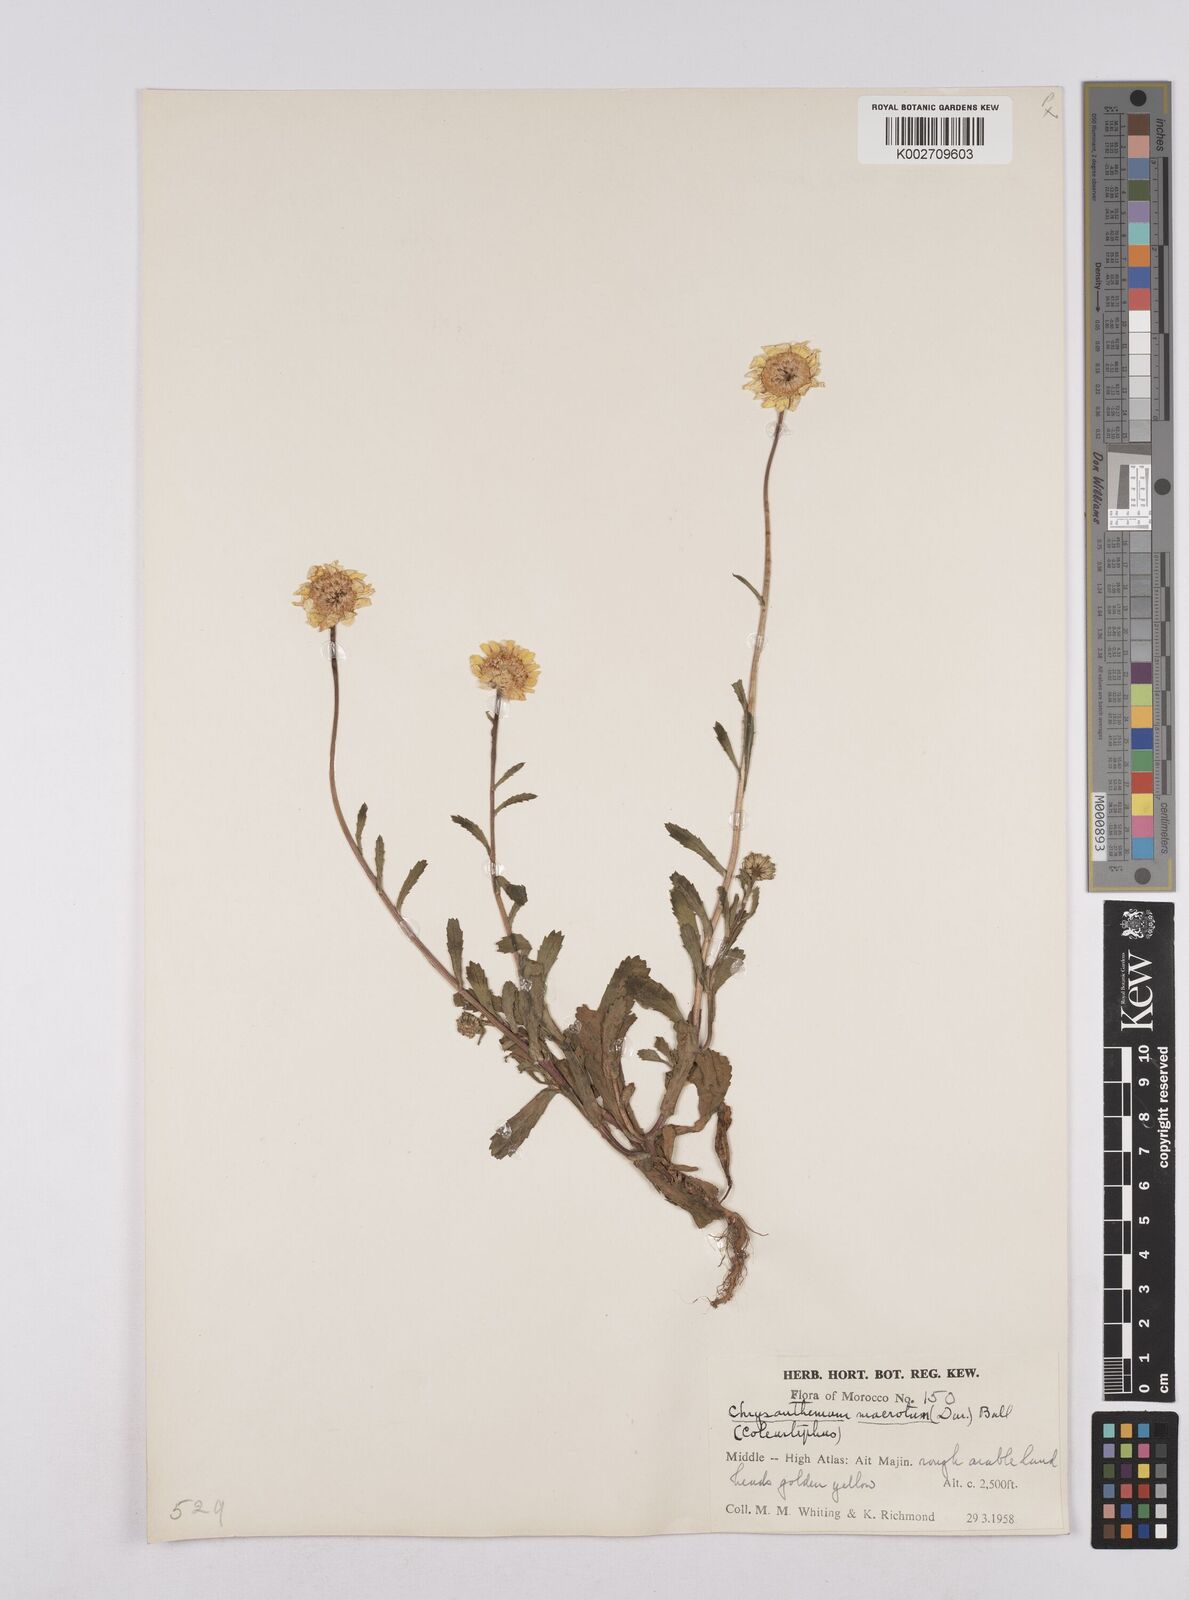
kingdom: Plantae
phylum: Tracheophyta
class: Magnoliopsida
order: Asterales
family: Asteraceae
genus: Glossopappus
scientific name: Glossopappus macrotus
